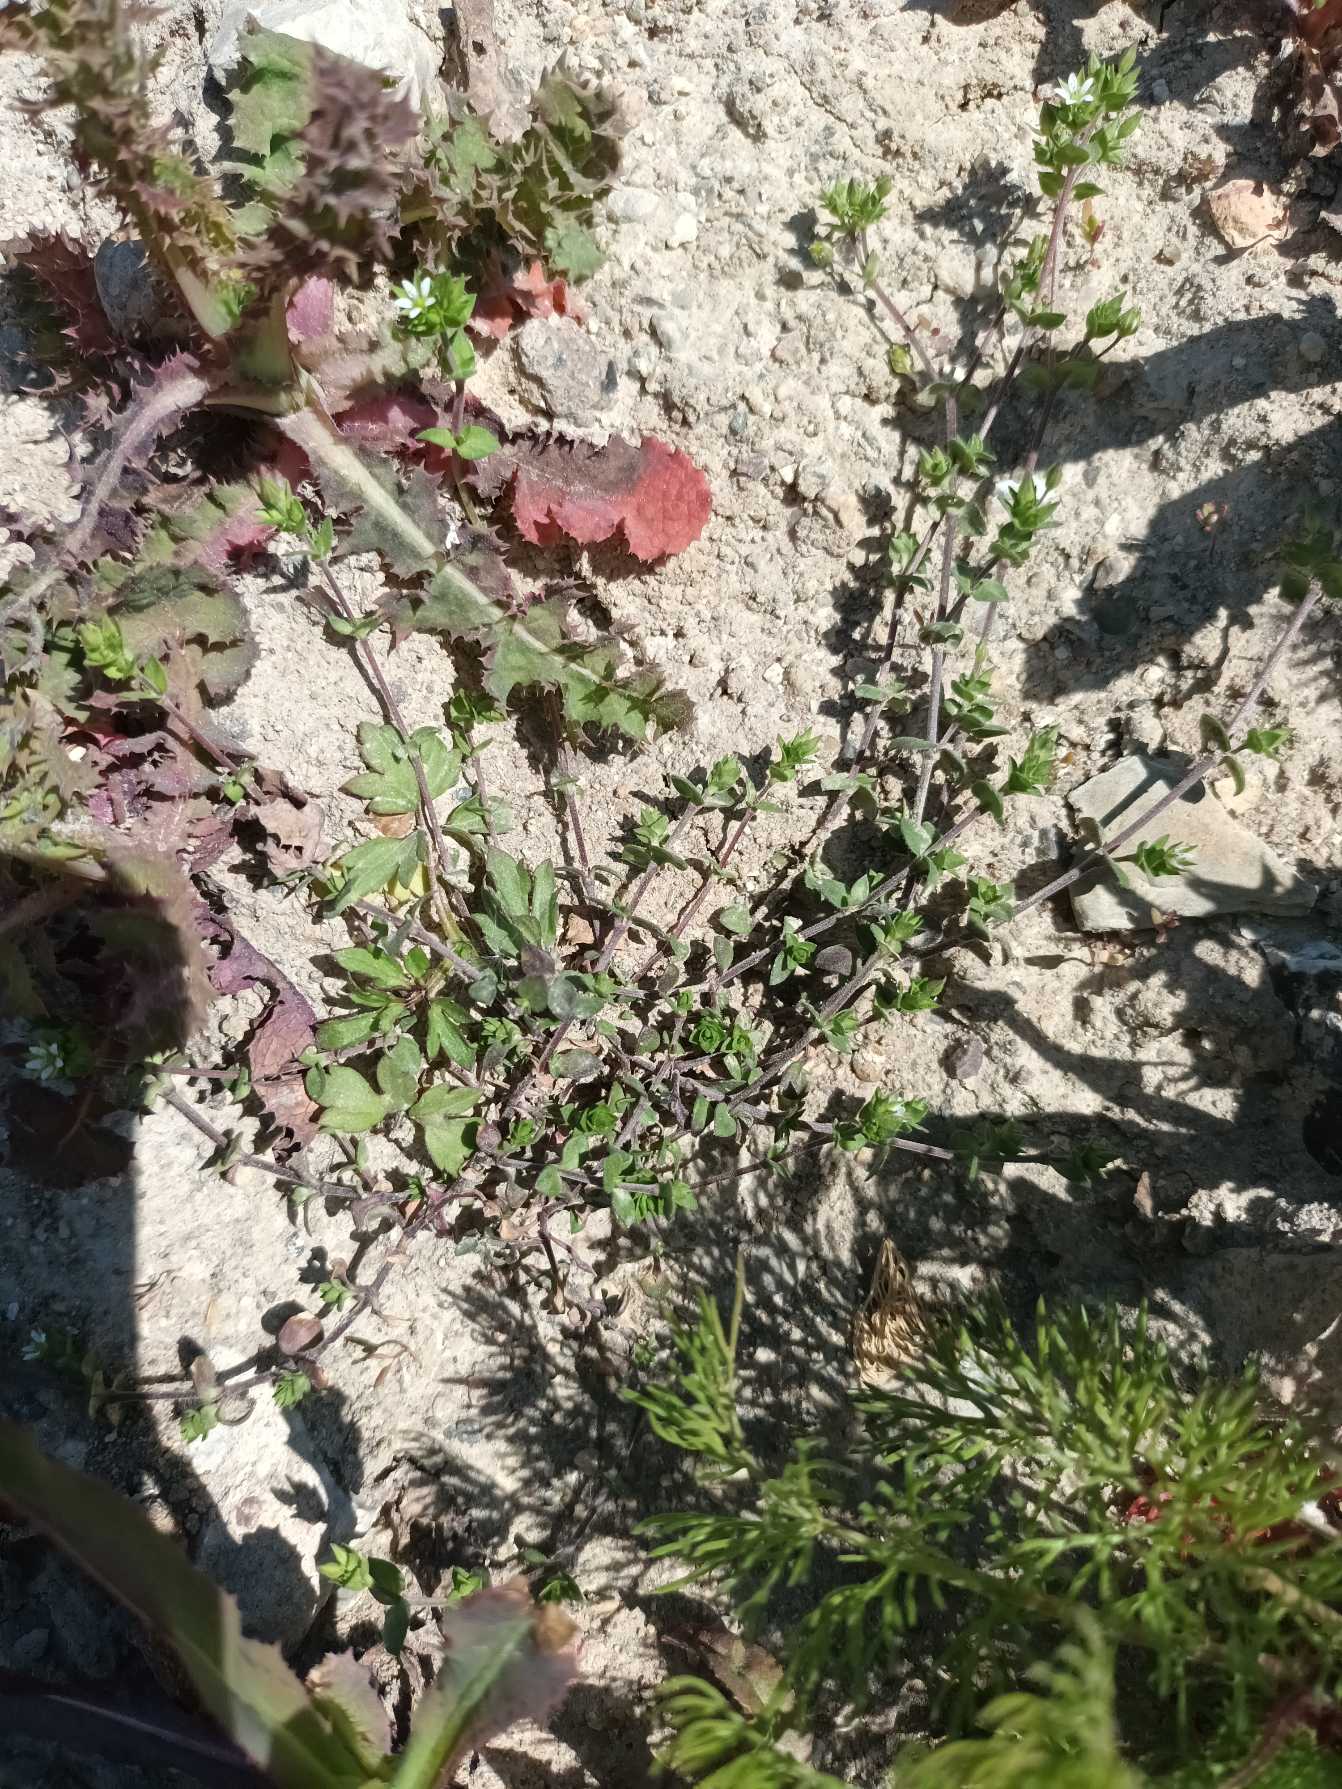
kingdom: Plantae
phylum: Tracheophyta
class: Magnoliopsida
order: Caryophyllales
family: Caryophyllaceae
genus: Arenaria
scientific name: Arenaria serpyllifolia
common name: Almindelig markarve
